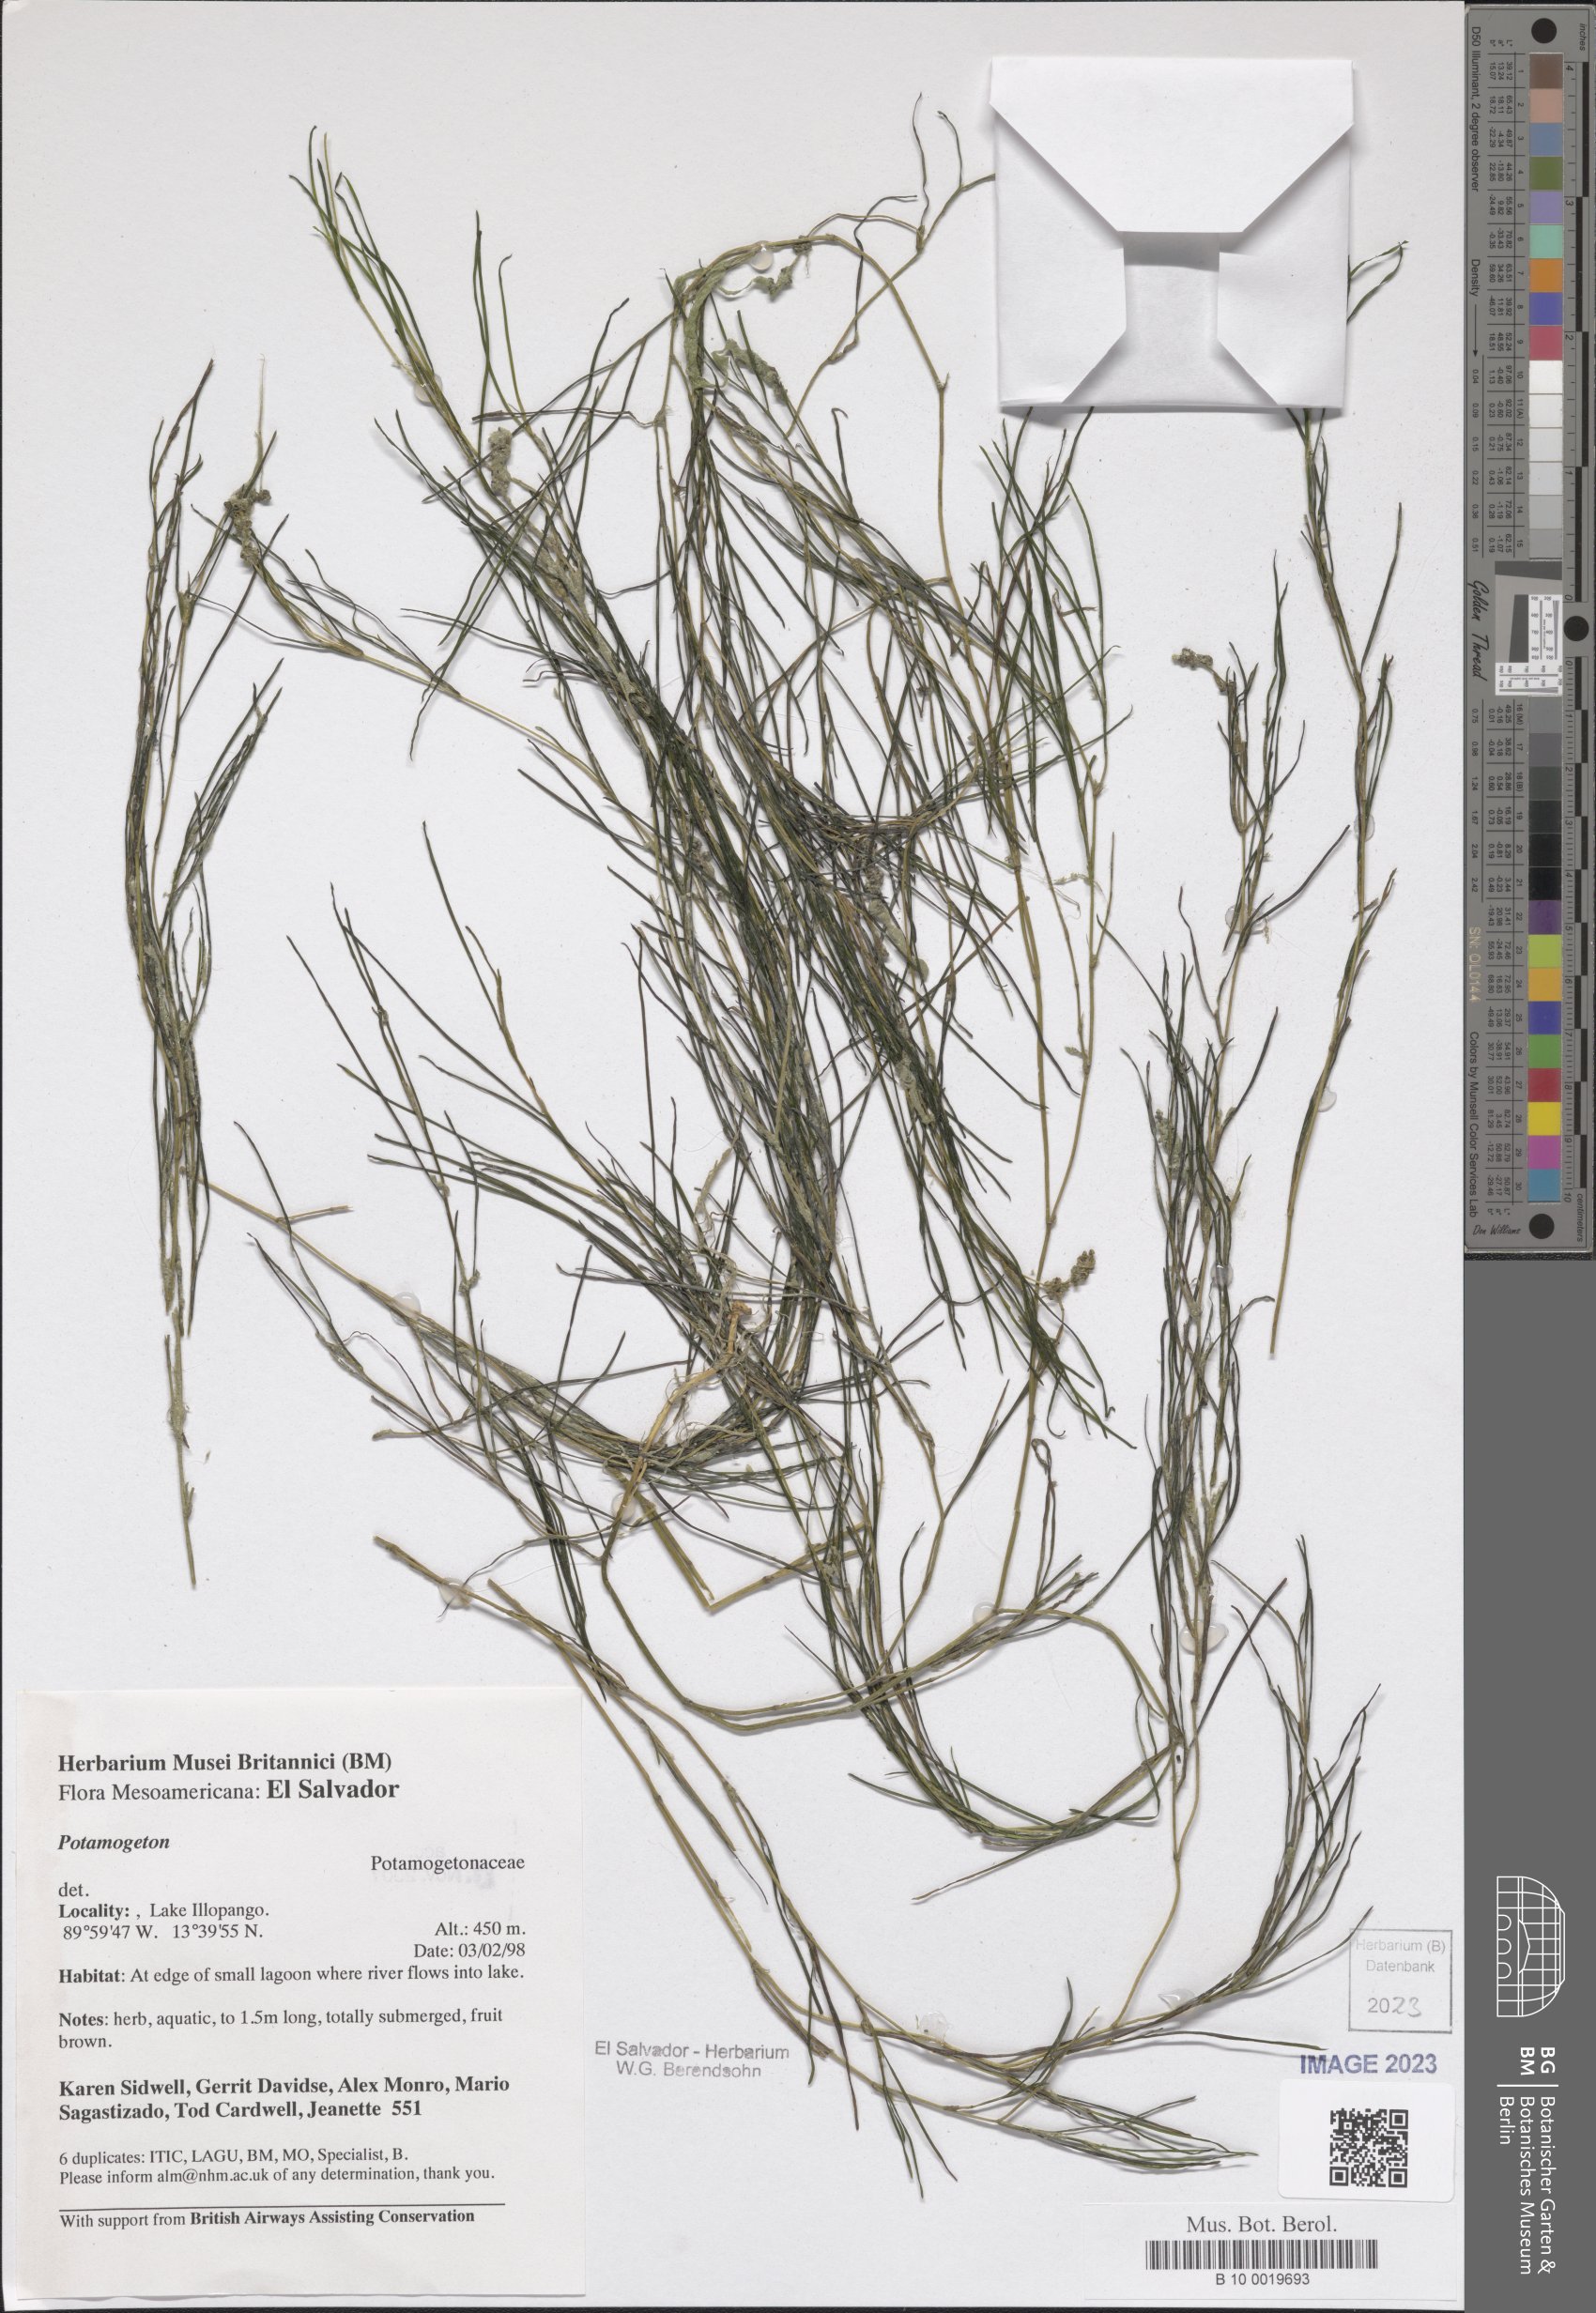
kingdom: Plantae
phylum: Tracheophyta
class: Liliopsida
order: Alismatales
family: Potamogetonaceae
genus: Potamogeton
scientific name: Potamogeton
